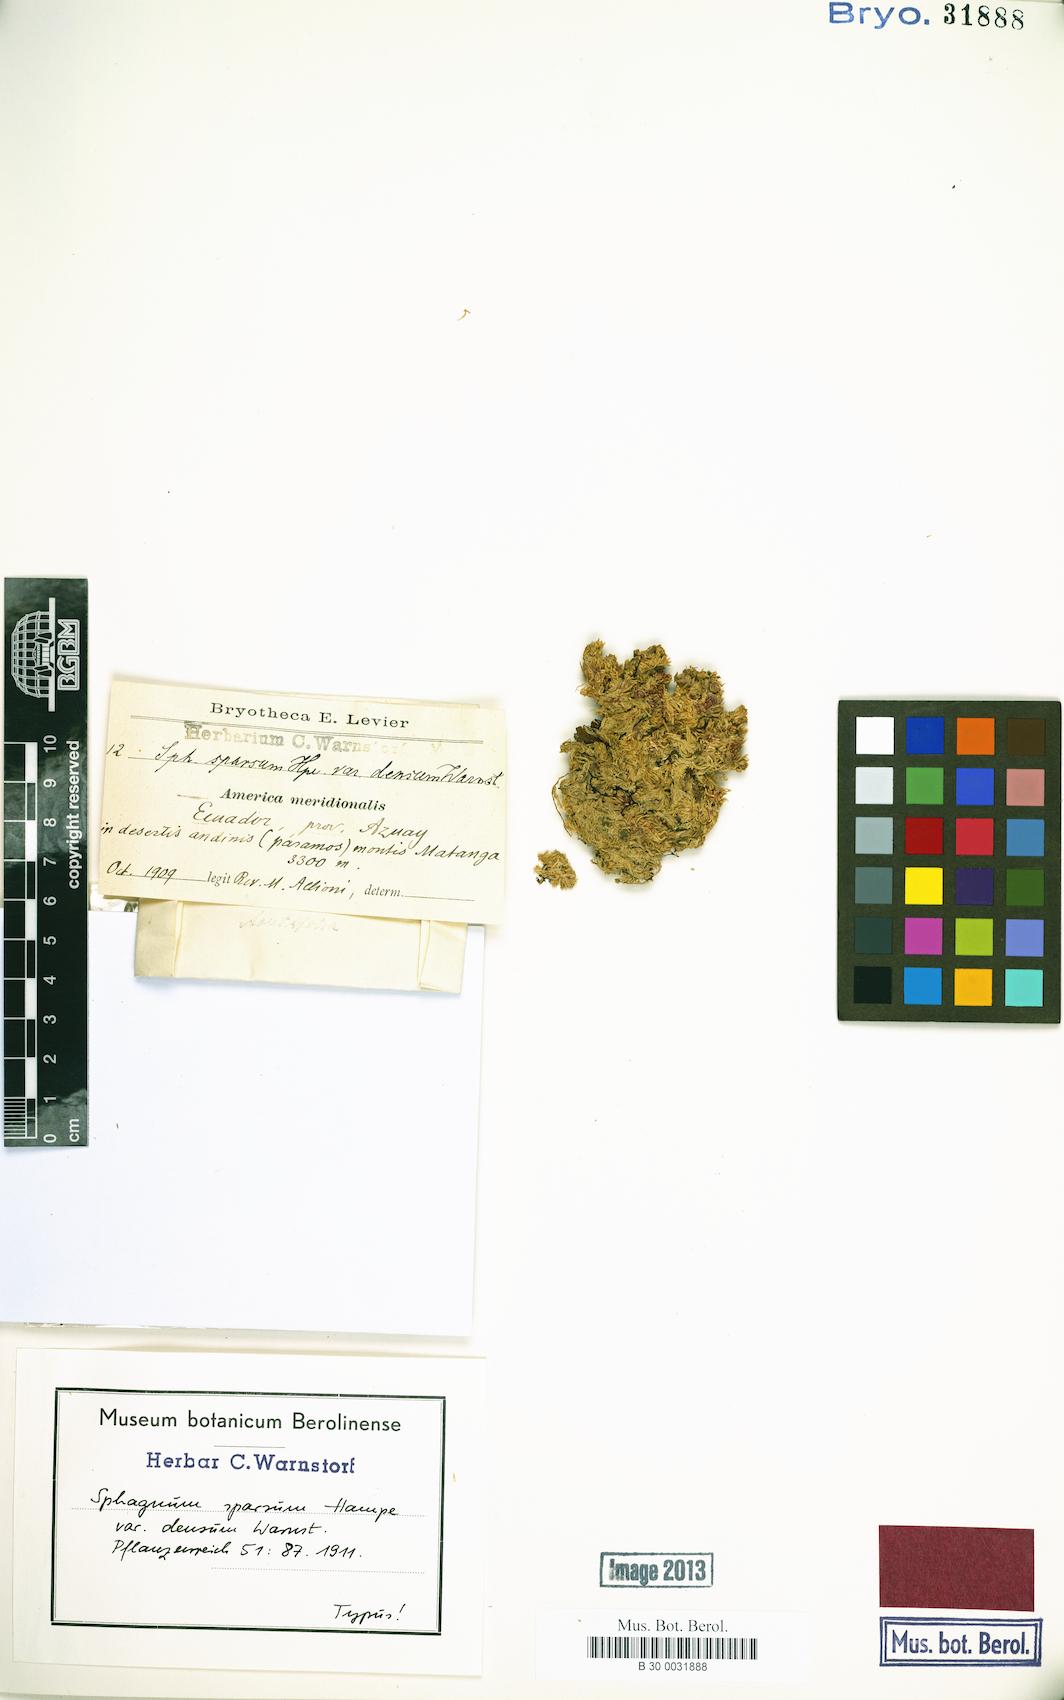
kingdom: Plantae
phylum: Bryophyta
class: Sphagnopsida
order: Sphagnales
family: Sphagnaceae
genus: Sphagnum
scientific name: Sphagnum sparsum
